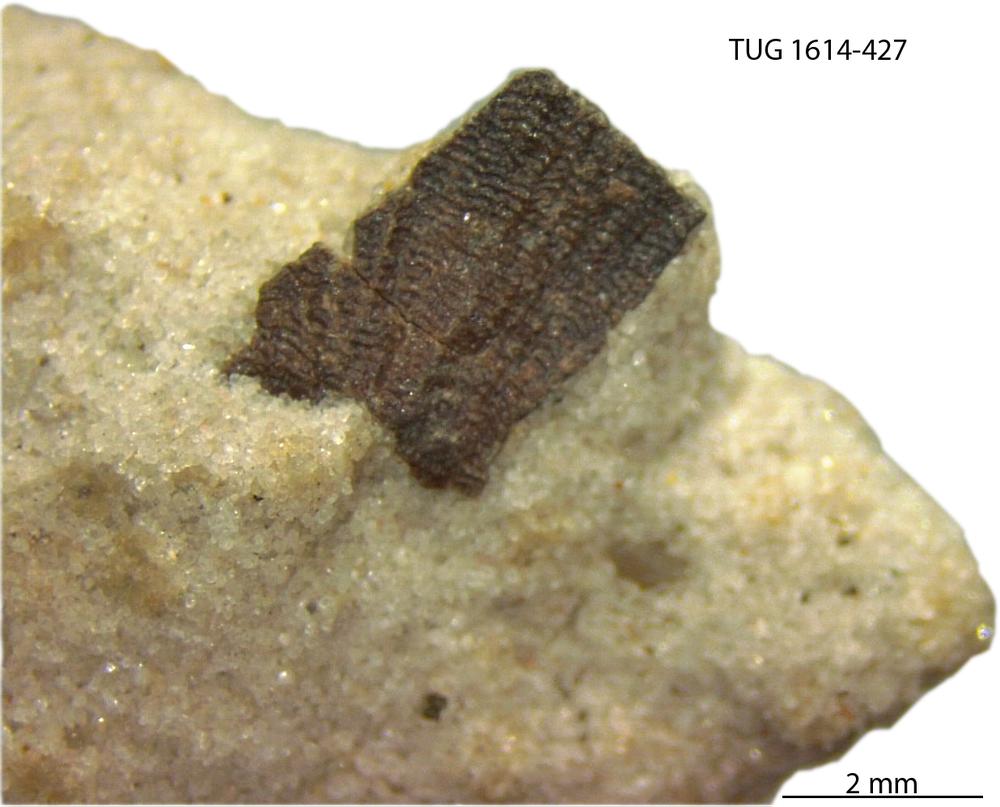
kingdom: Animalia
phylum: Mollusca
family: Scenellidae
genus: Scenella
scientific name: Scenella
